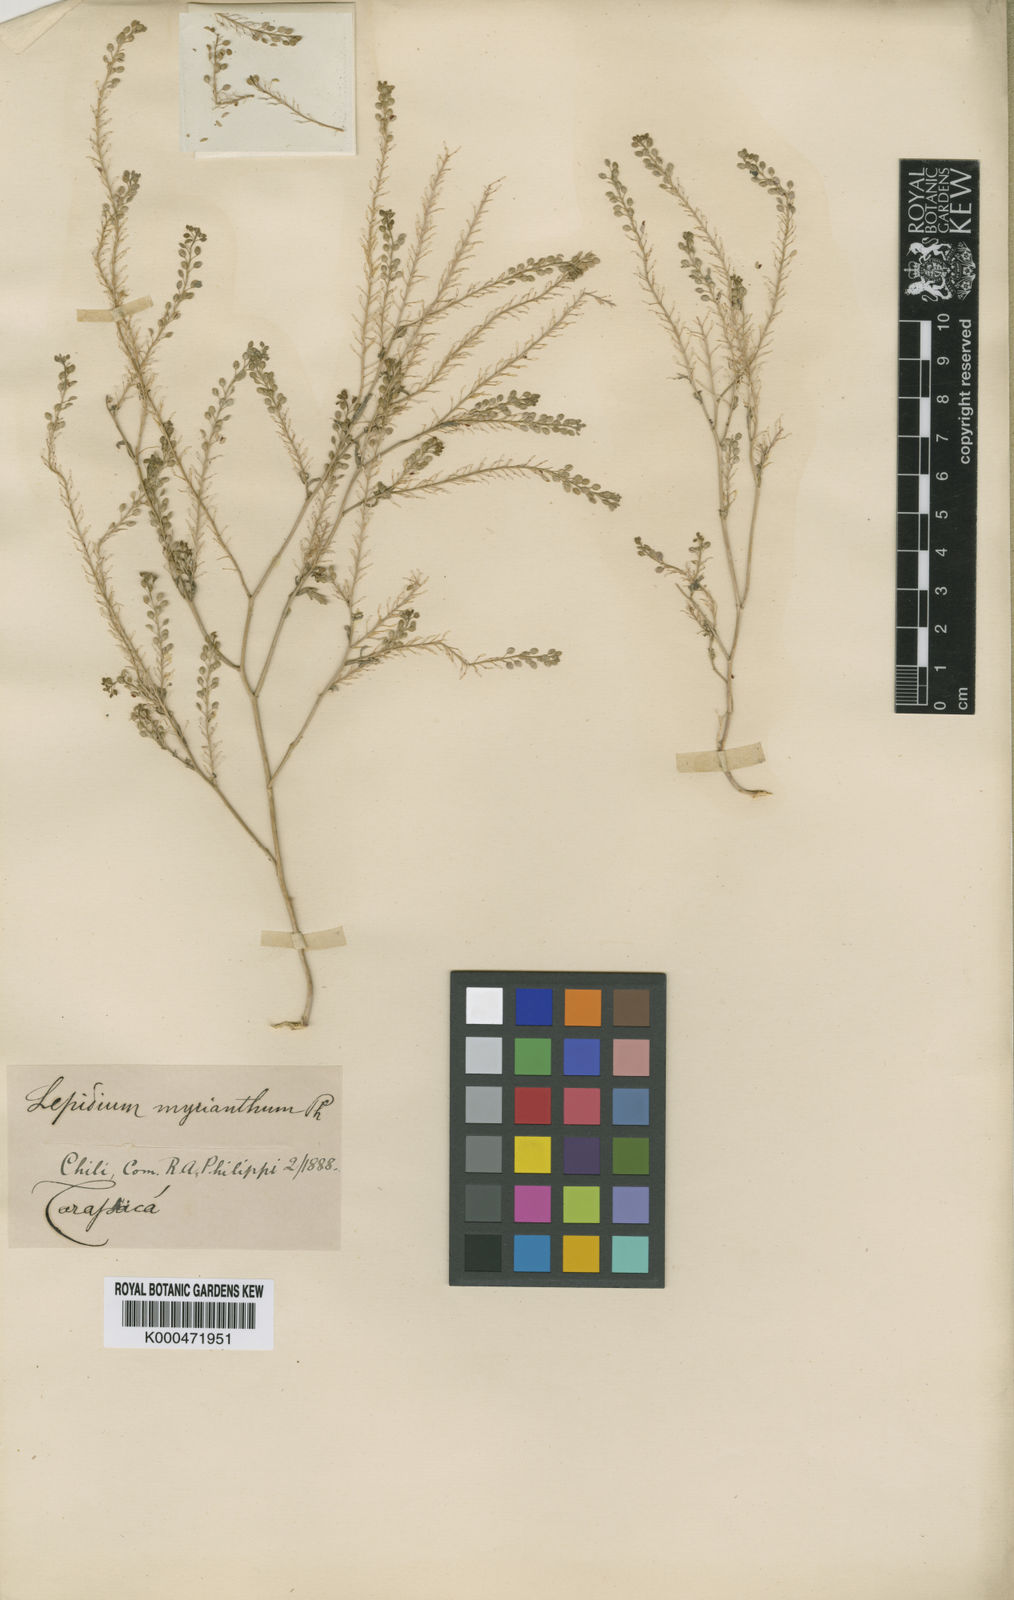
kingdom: Plantae
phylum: Tracheophyta
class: Magnoliopsida
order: Brassicales
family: Brassicaceae
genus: Lepidium
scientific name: Lepidium myrianthum
